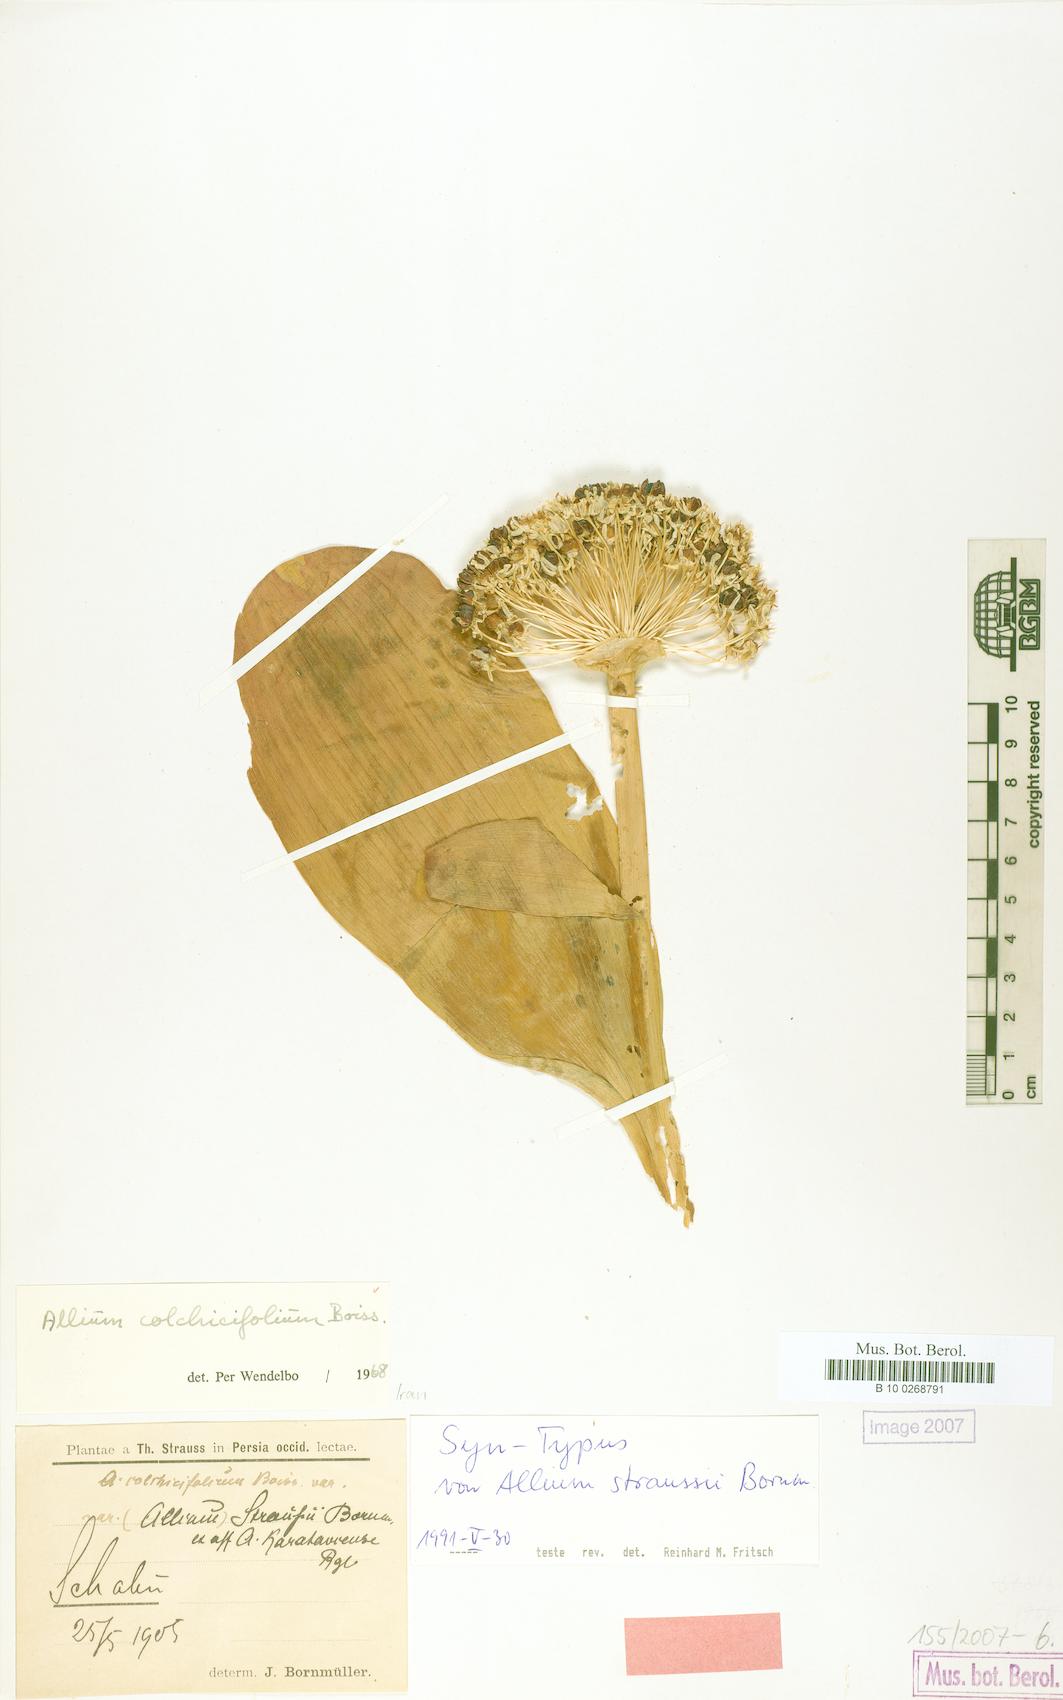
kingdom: Plantae
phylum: Tracheophyta
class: Liliopsida
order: Asparagales
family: Amaryllidaceae
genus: Allium
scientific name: Allium colchicifolium
